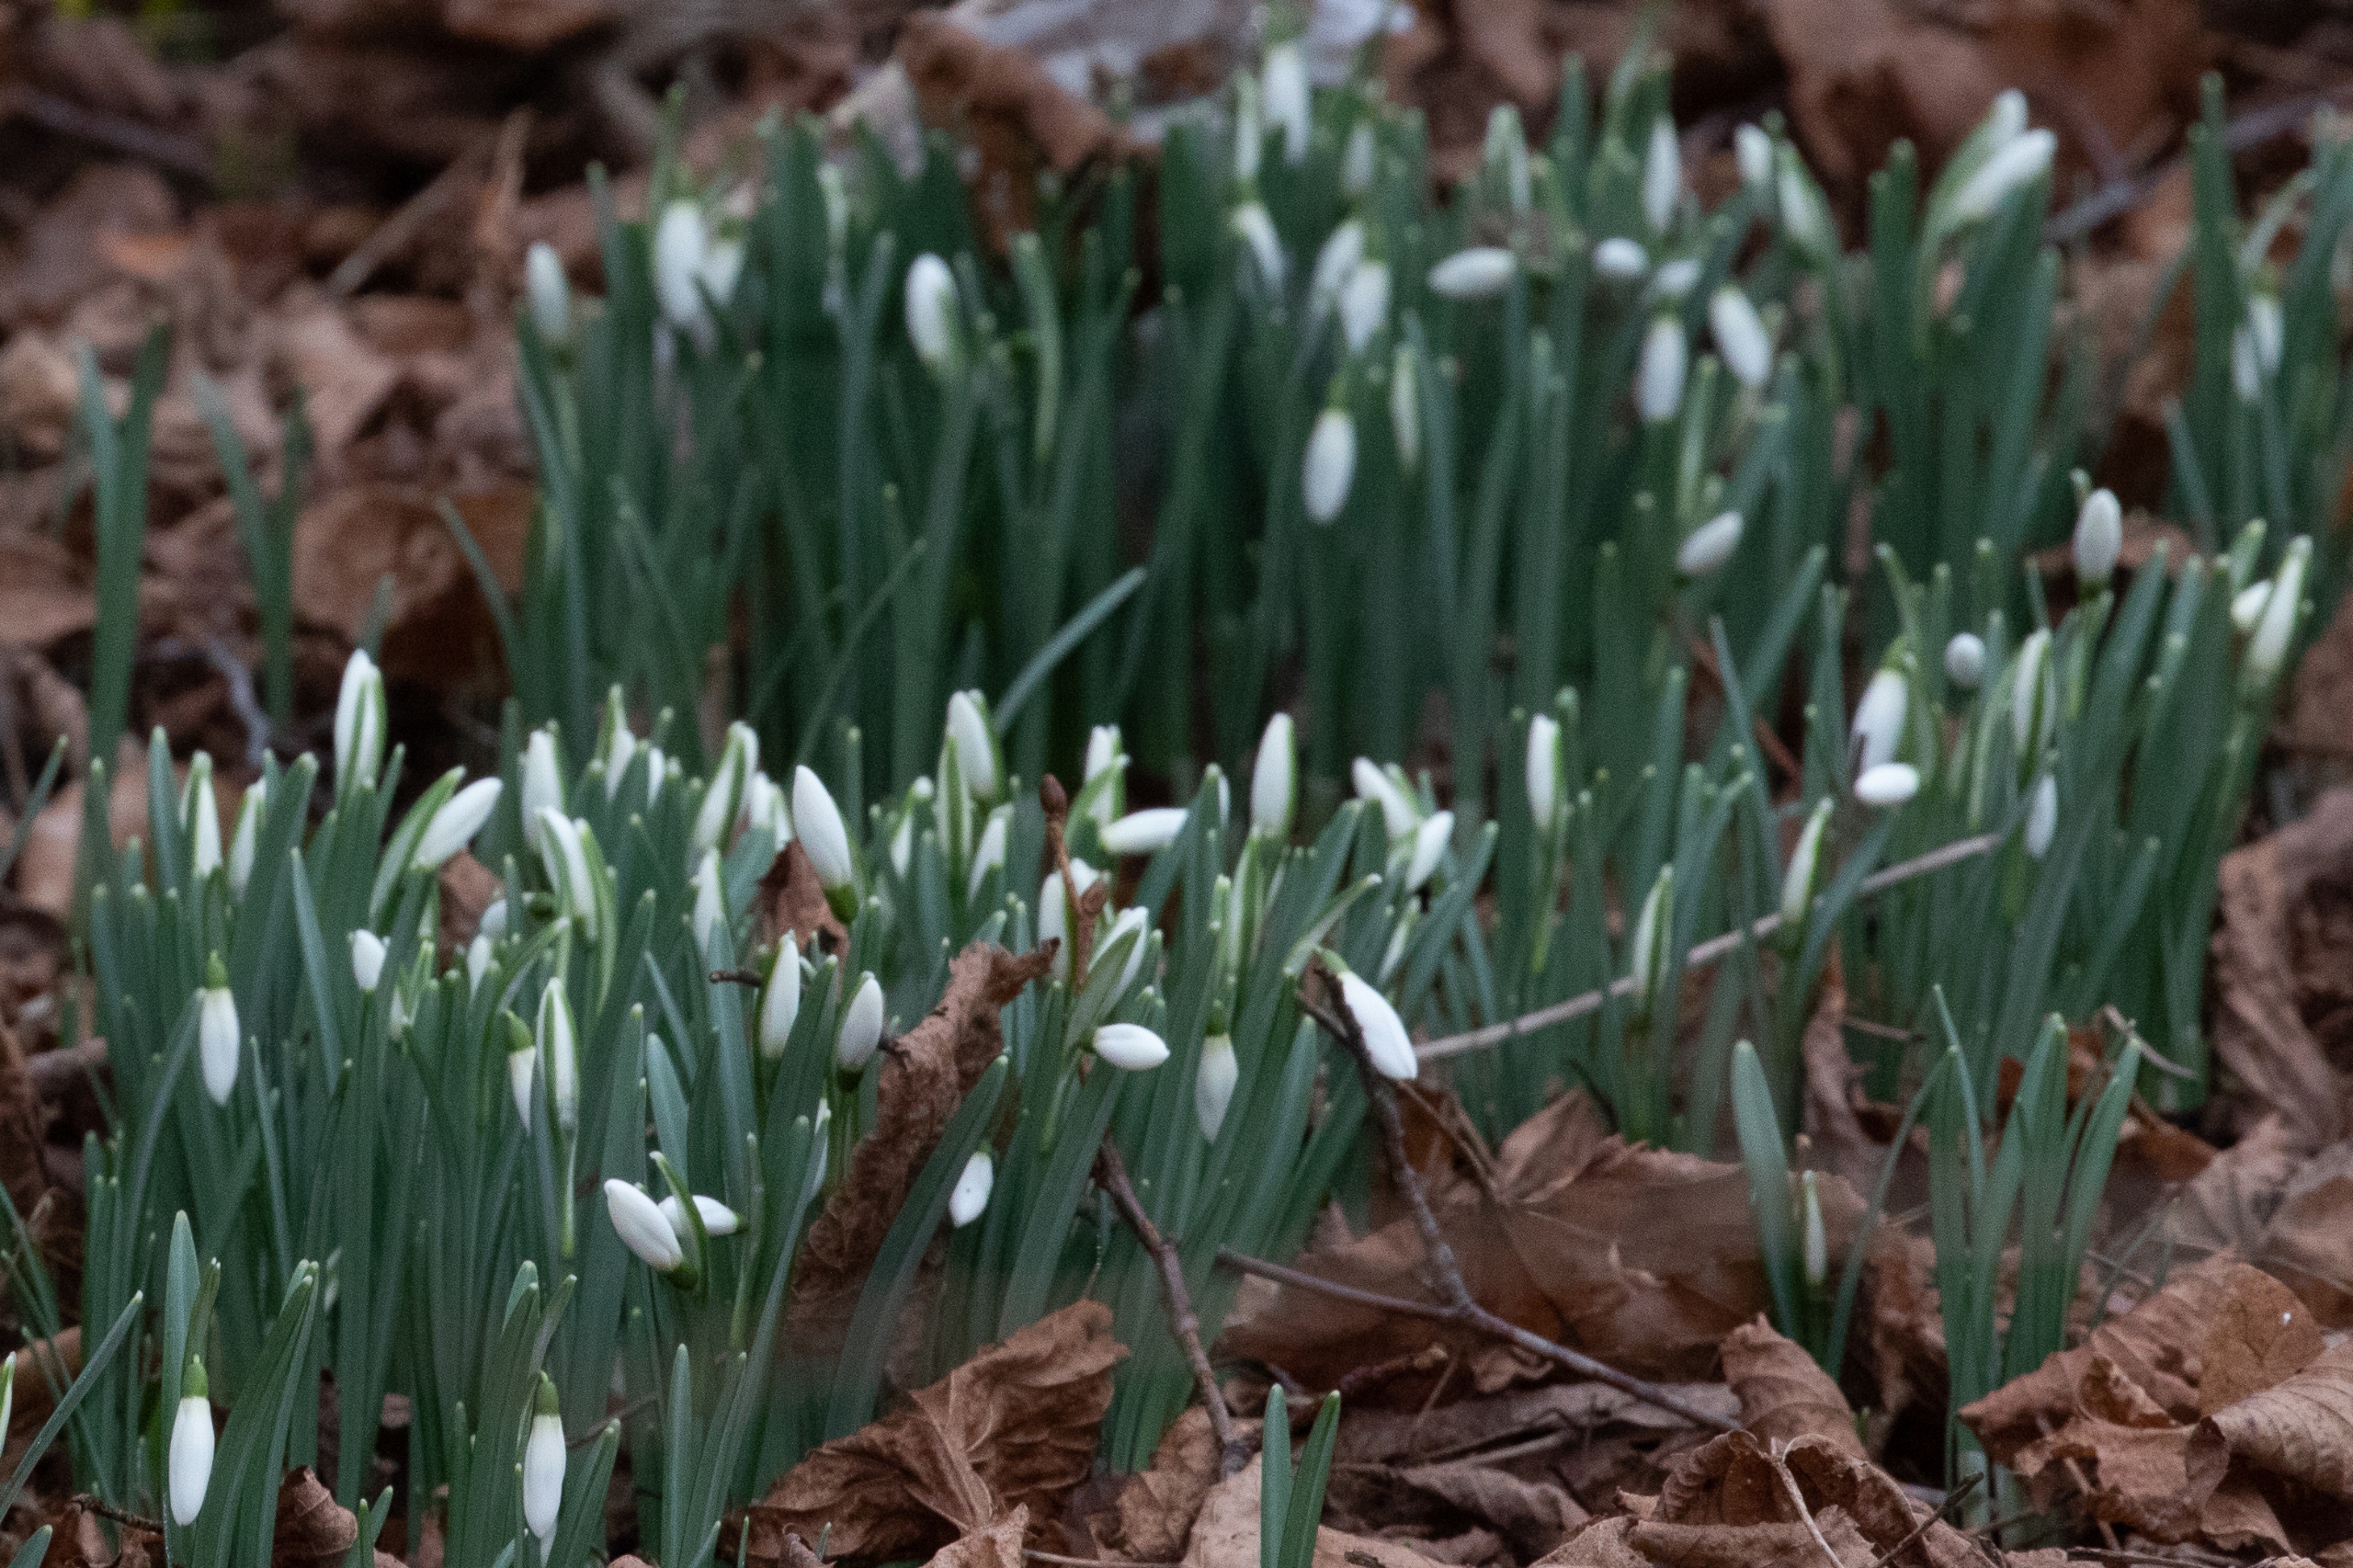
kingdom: Plantae
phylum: Tracheophyta
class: Liliopsida
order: Asparagales
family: Amaryllidaceae
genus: Galanthus
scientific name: Galanthus nivalis
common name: Vintergæk
